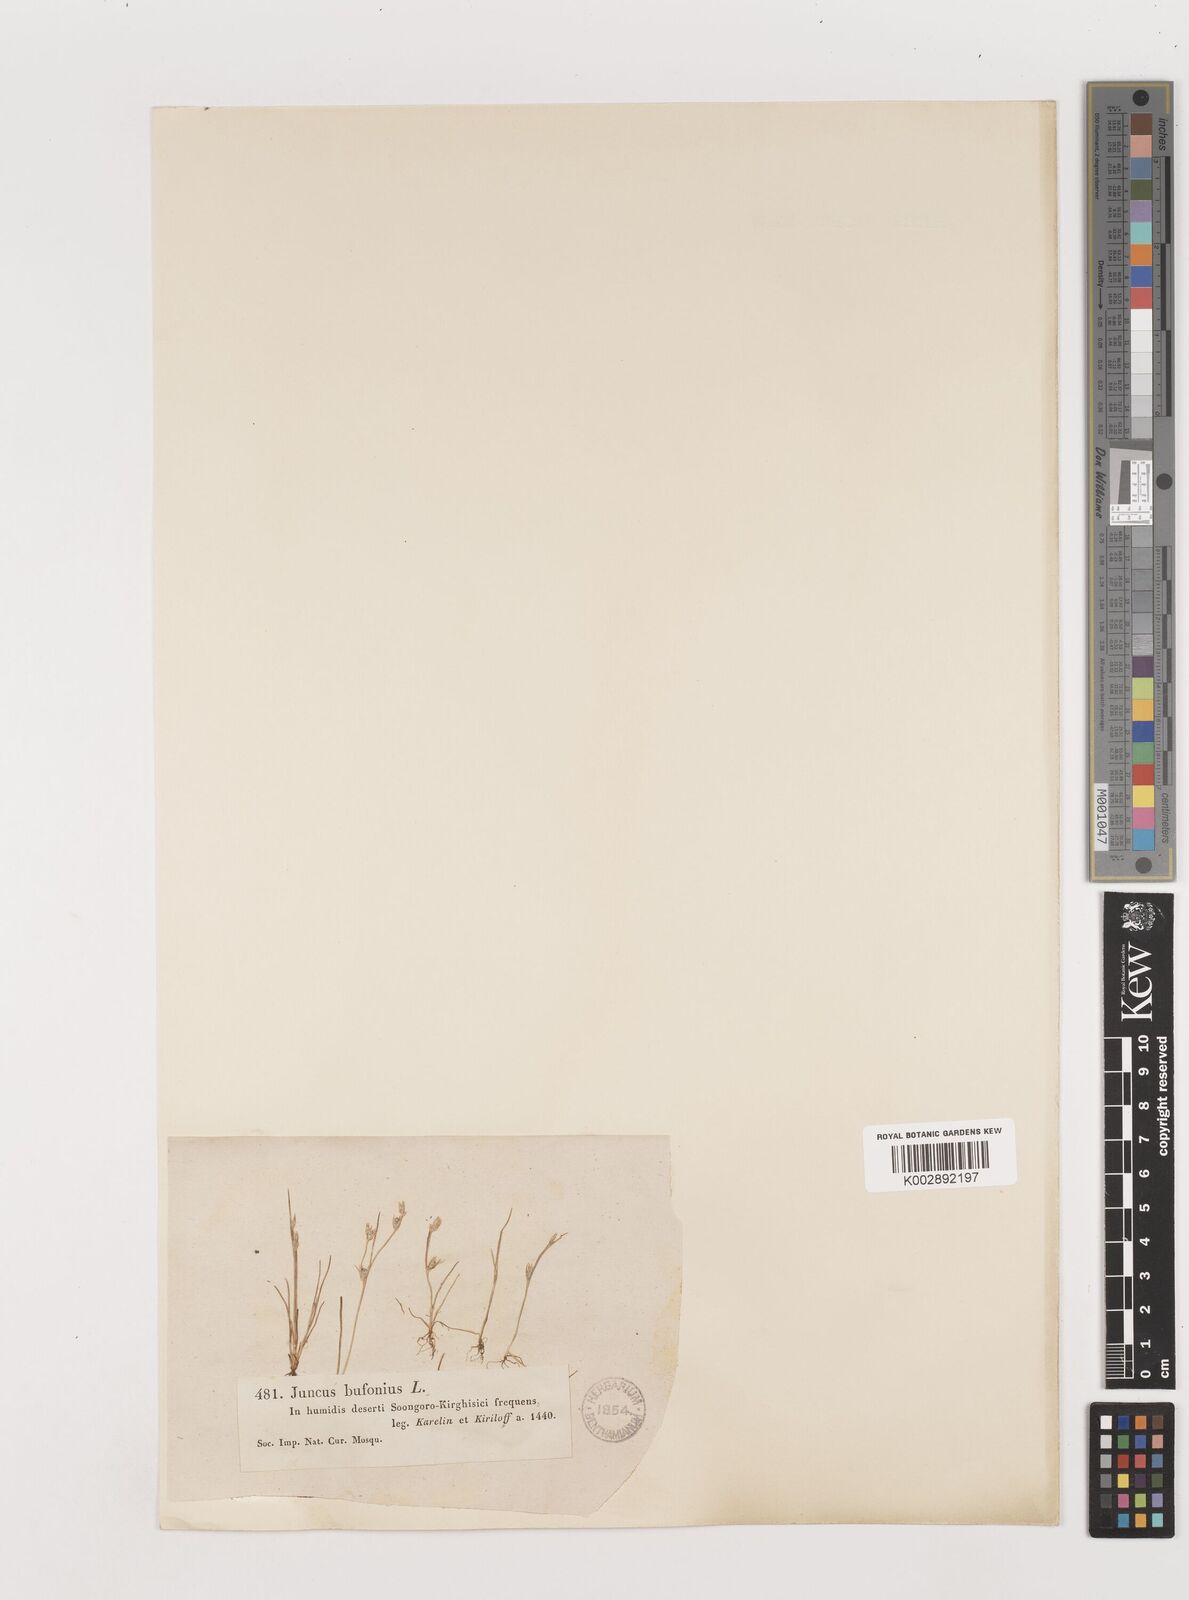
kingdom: Plantae
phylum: Tracheophyta
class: Liliopsida
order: Poales
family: Juncaceae
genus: Juncus
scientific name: Juncus bufonius
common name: Toad rush
